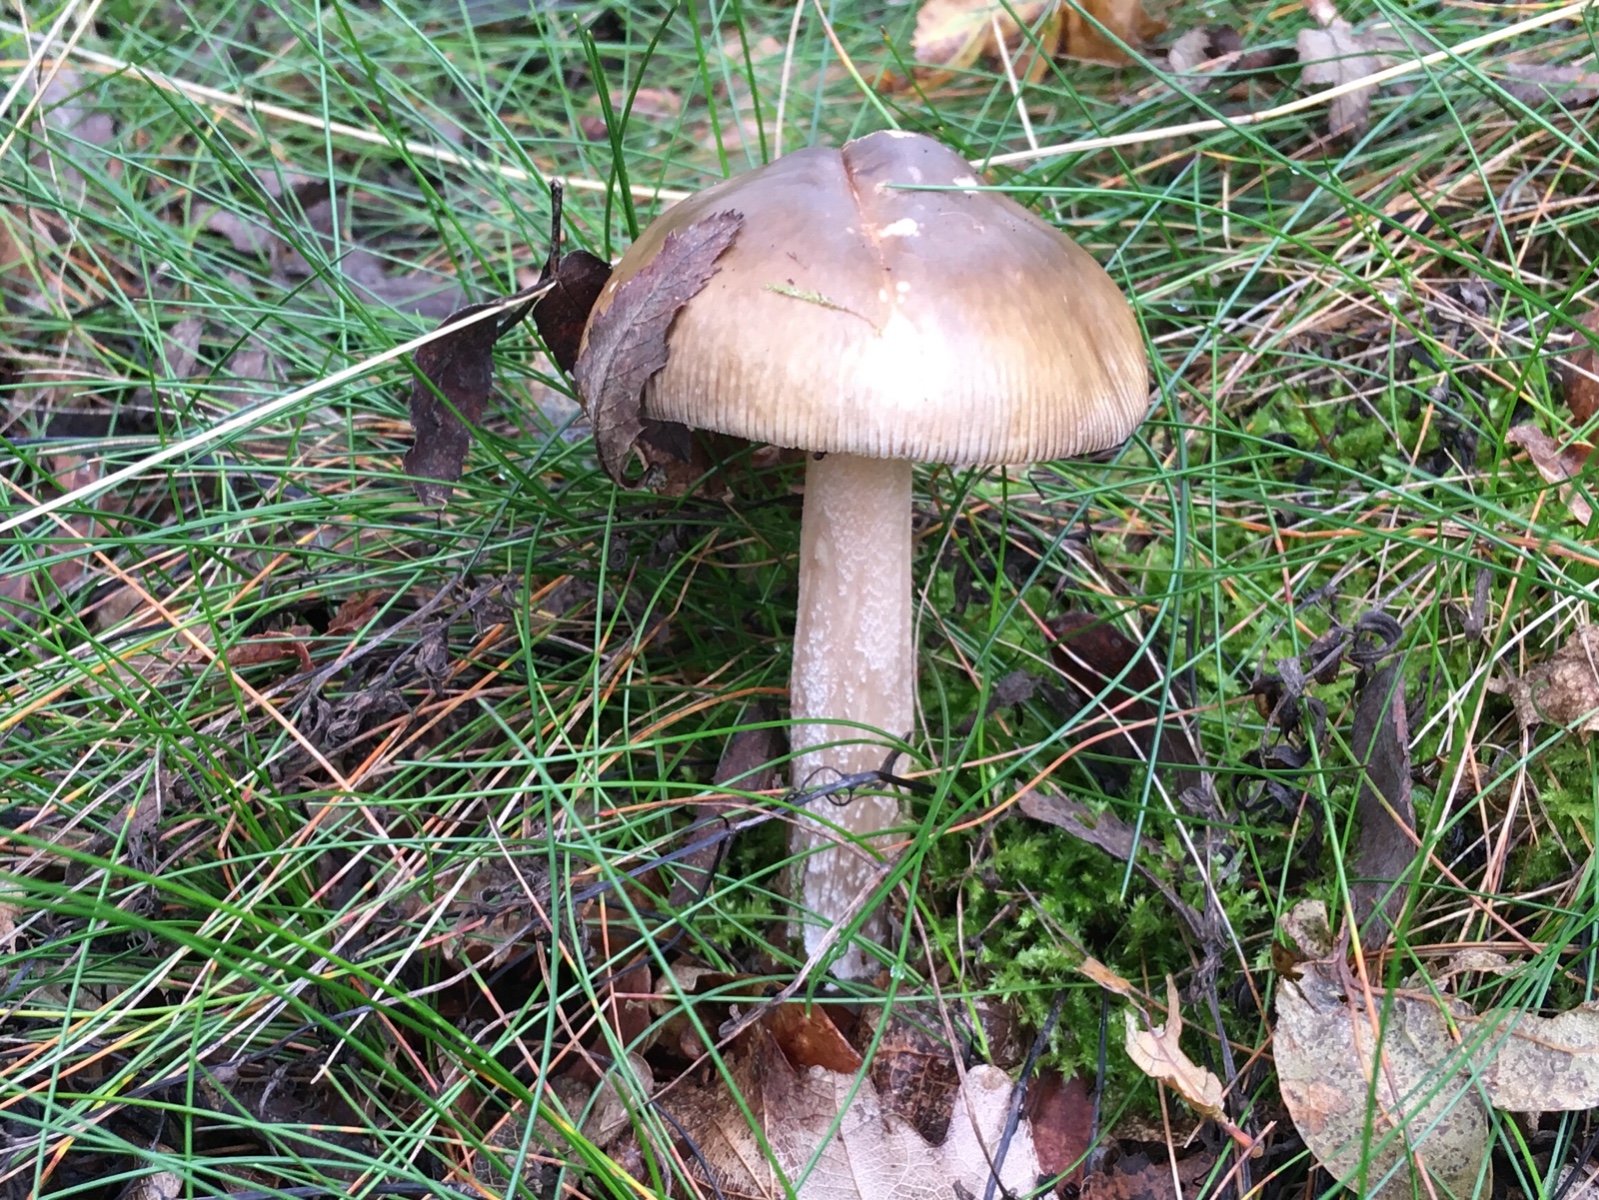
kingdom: Fungi
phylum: Basidiomycota
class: Agaricomycetes
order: Agaricales
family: Amanitaceae
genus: Amanita
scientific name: Amanita submembranacea
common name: gråspættet kam-fluesvamp
